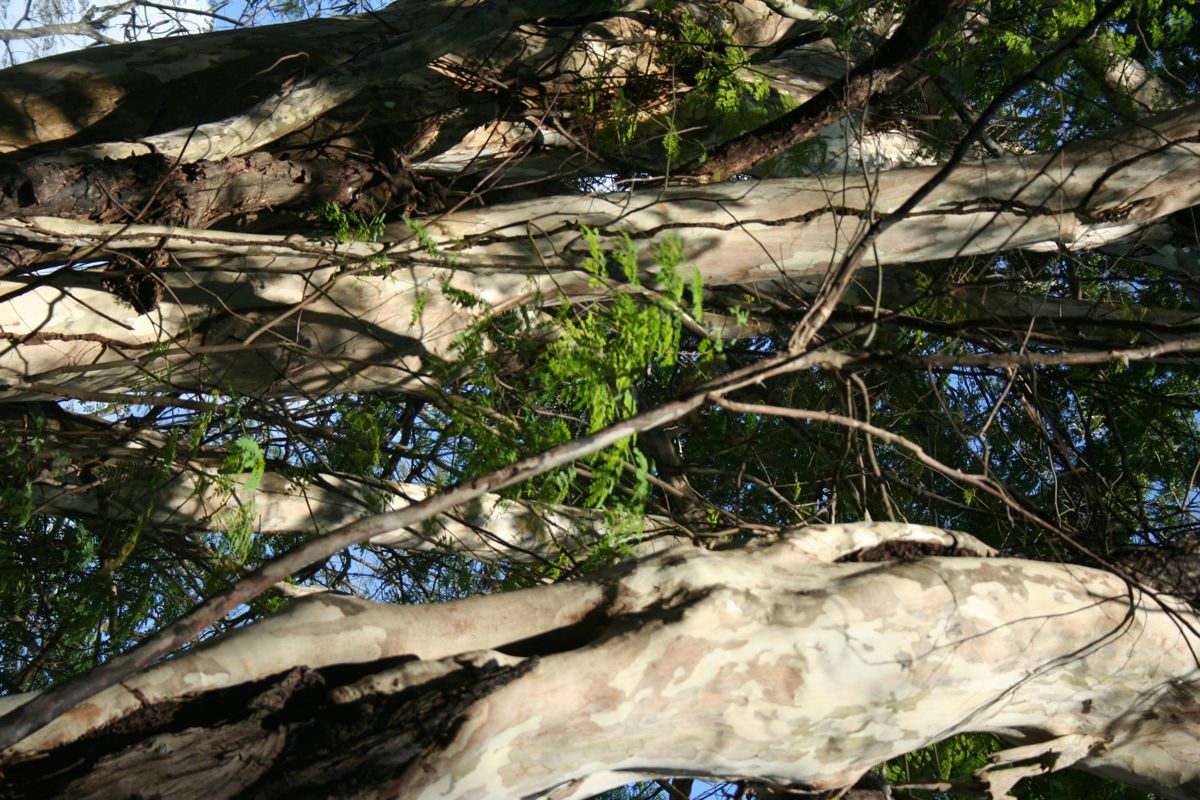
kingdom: Plantae
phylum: Tracheophyta
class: Magnoliopsida
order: Fabales
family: Fabaceae
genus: Peltophorum
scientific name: Peltophorum pterocarpum
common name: Yellow flame
